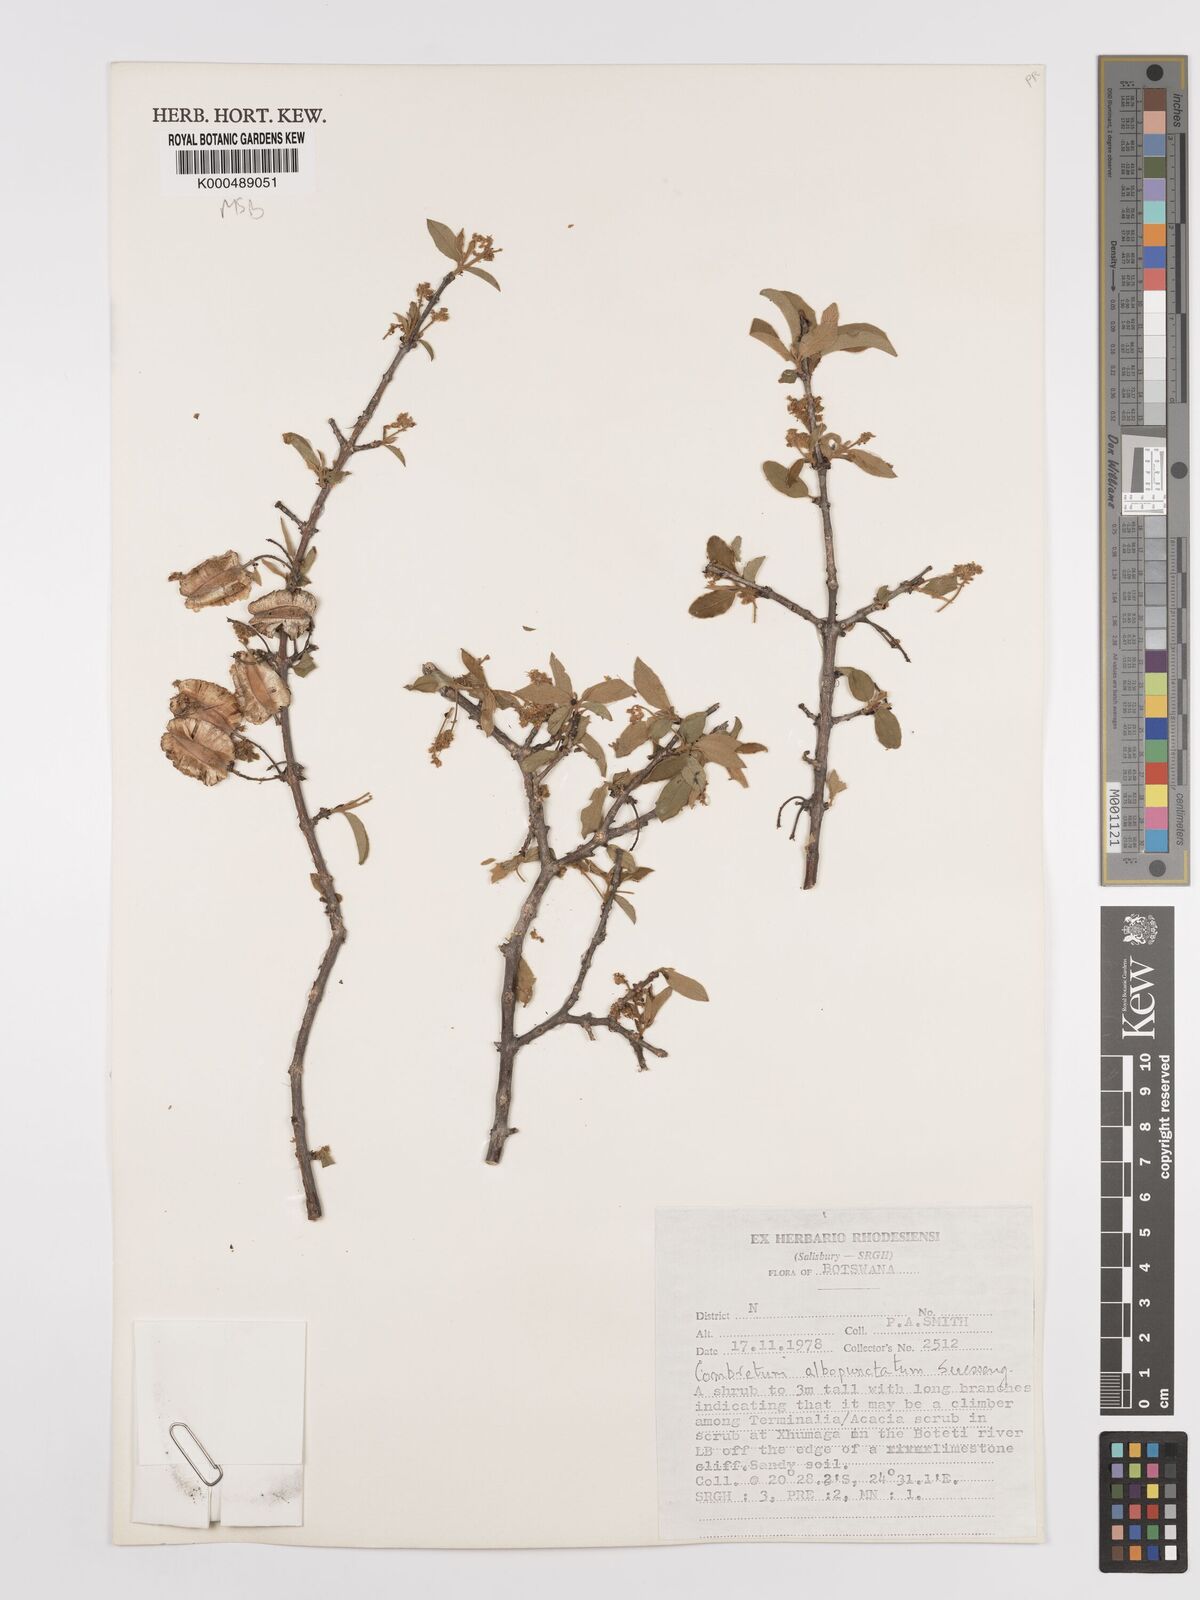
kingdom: Plantae
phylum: Tracheophyta
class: Magnoliopsida
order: Myrtales
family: Combretaceae
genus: Combretum
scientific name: Combretum albopunctatum
